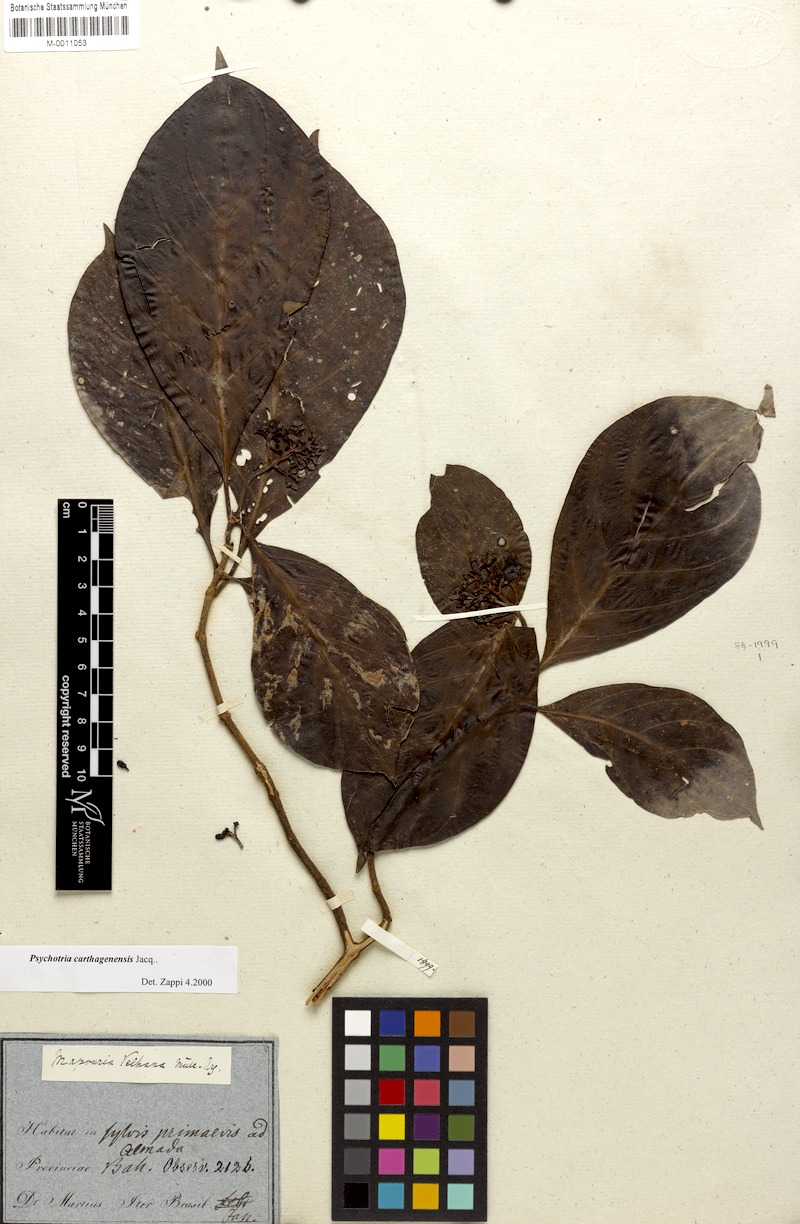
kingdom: Plantae
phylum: Tracheophyta
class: Magnoliopsida
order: Gentianales
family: Rubiaceae
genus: Psychotria
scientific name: Psychotria carthagenensis
